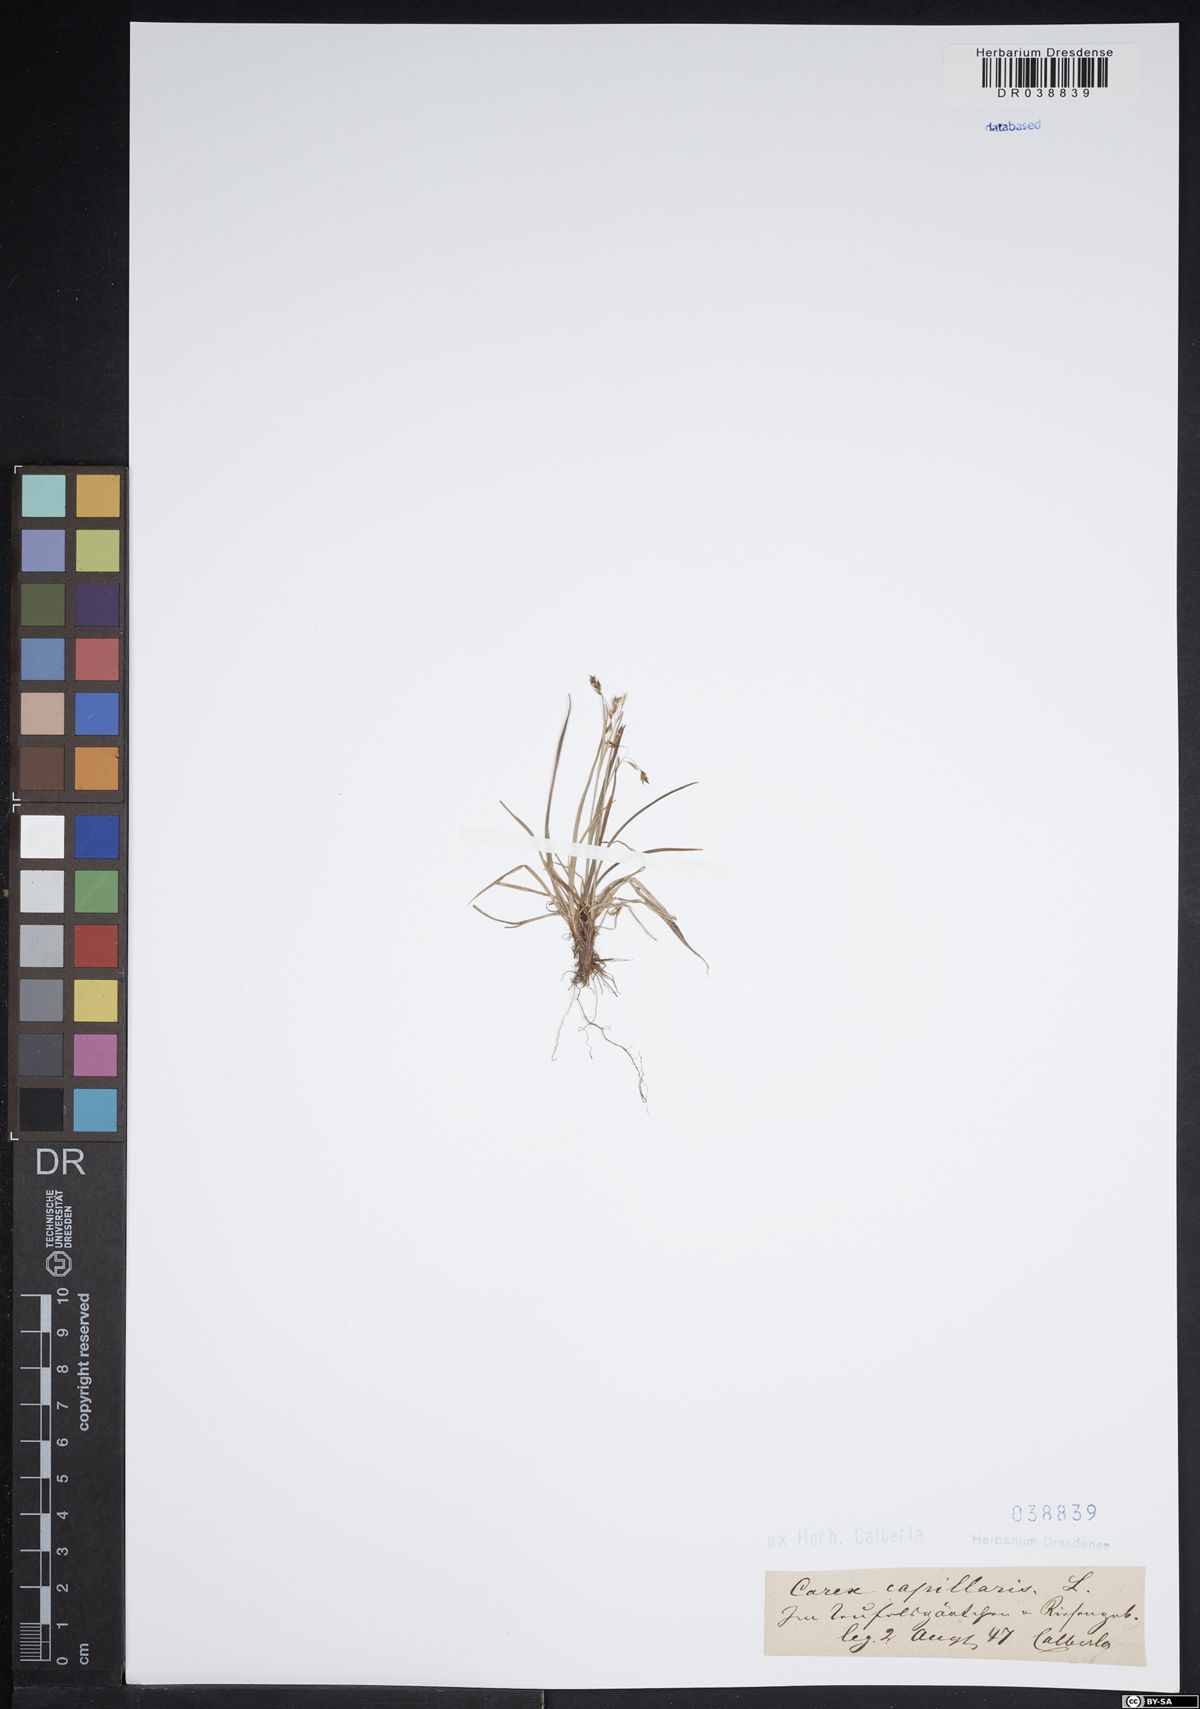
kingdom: Plantae
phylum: Tracheophyta
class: Liliopsida
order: Poales
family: Cyperaceae
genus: Carex
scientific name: Carex capillaris
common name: Hair sedge
